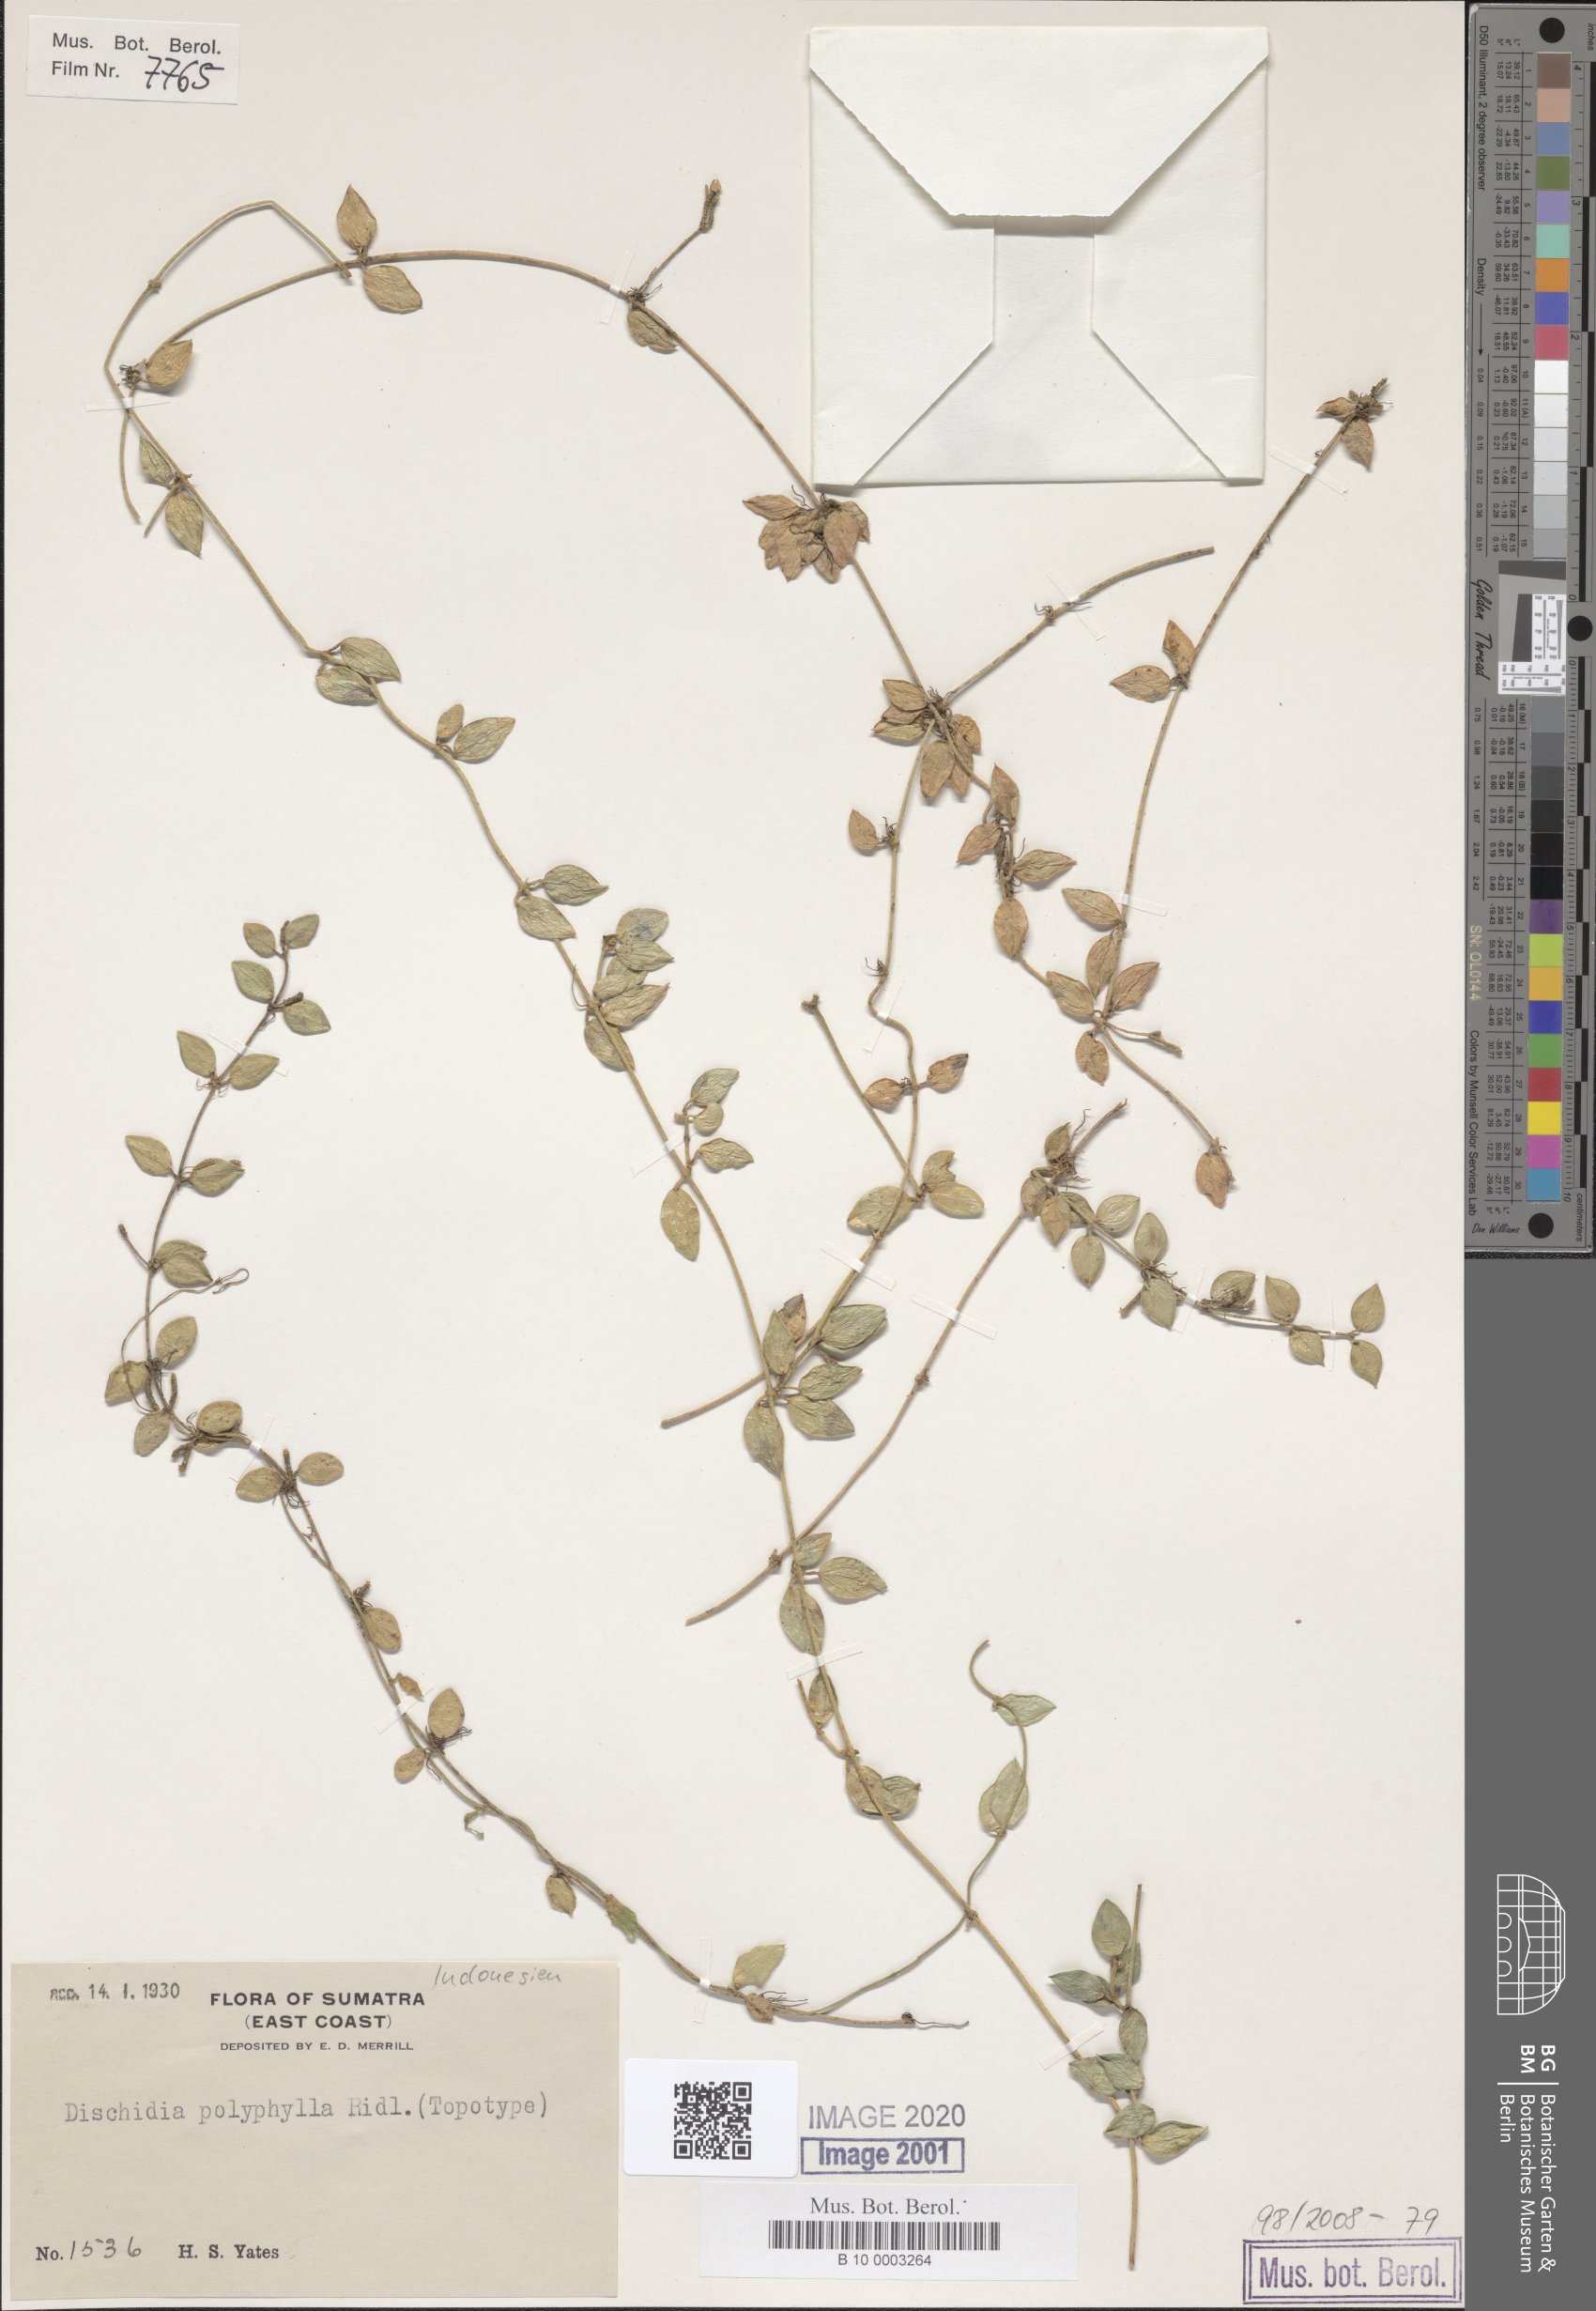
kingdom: Plantae
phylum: Tracheophyta
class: Magnoliopsida
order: Gentianales
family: Apocynaceae
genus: Dischidia
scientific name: Dischidia polyphylla
